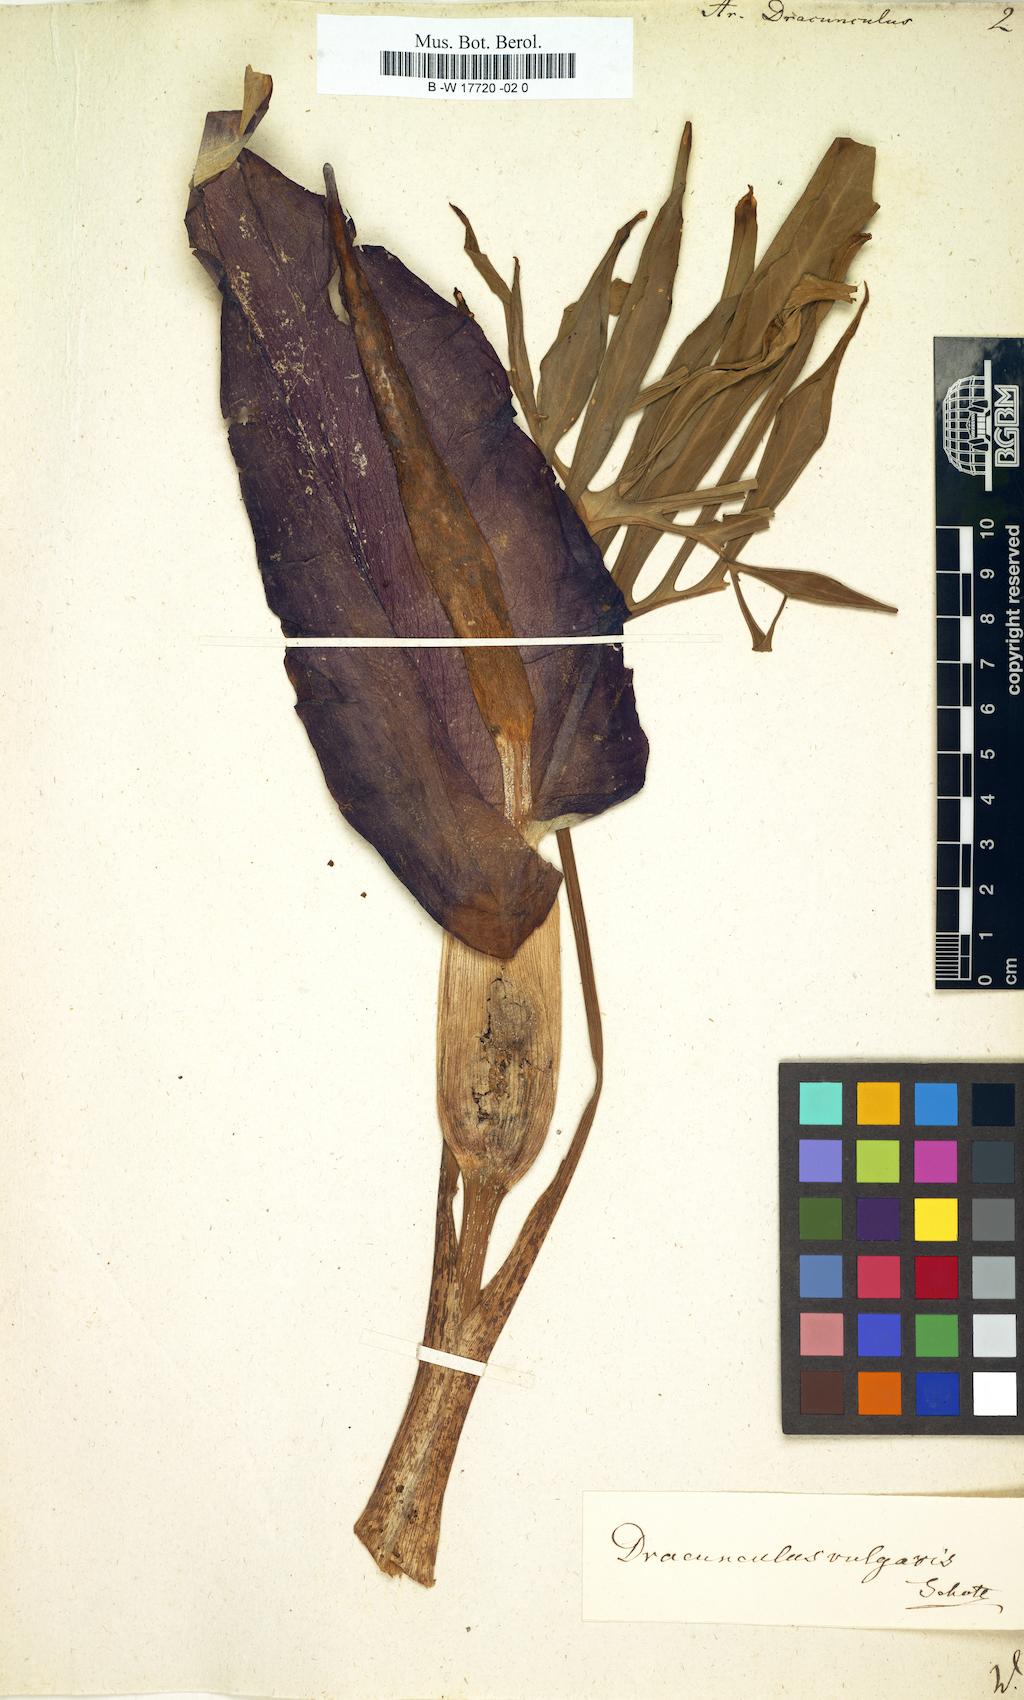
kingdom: Plantae
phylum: Tracheophyta
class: Liliopsida
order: Alismatales
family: Araceae
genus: Arum
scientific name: Arum dracunculus
